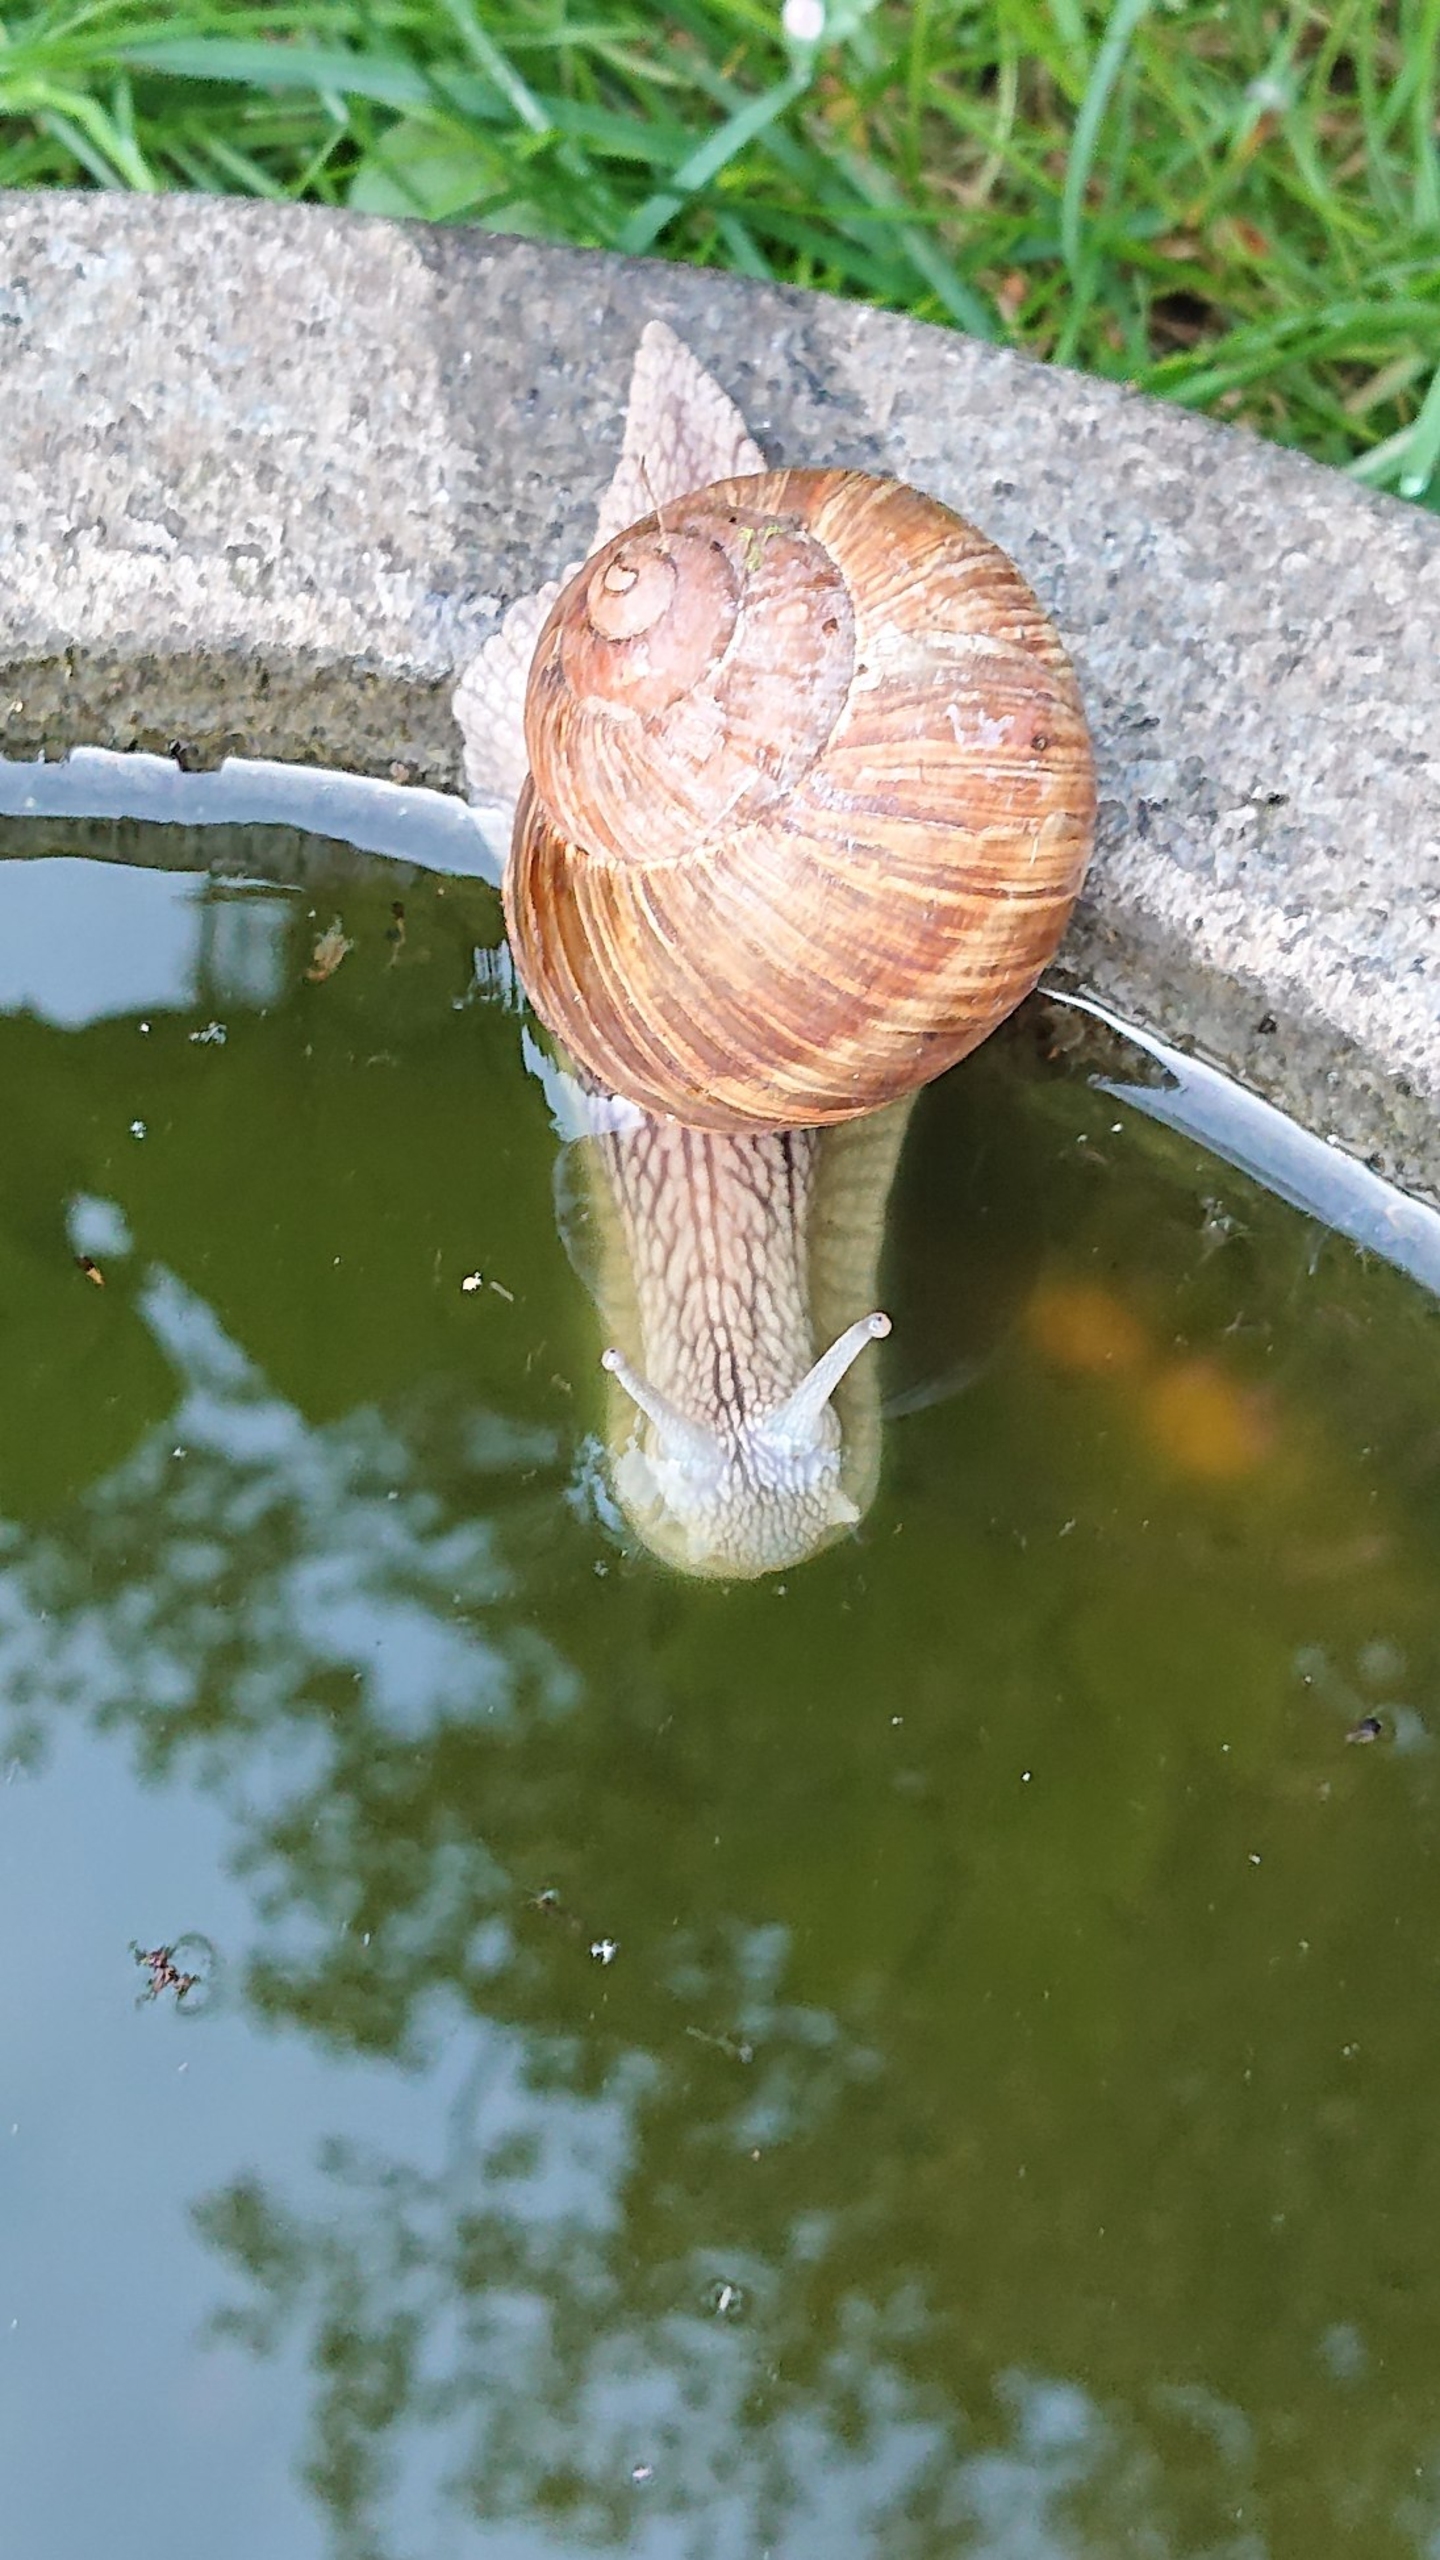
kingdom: Animalia
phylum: Mollusca
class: Gastropoda
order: Stylommatophora
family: Helicidae
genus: Helix
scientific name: Helix pomatia
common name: Vinbjergsnegl
